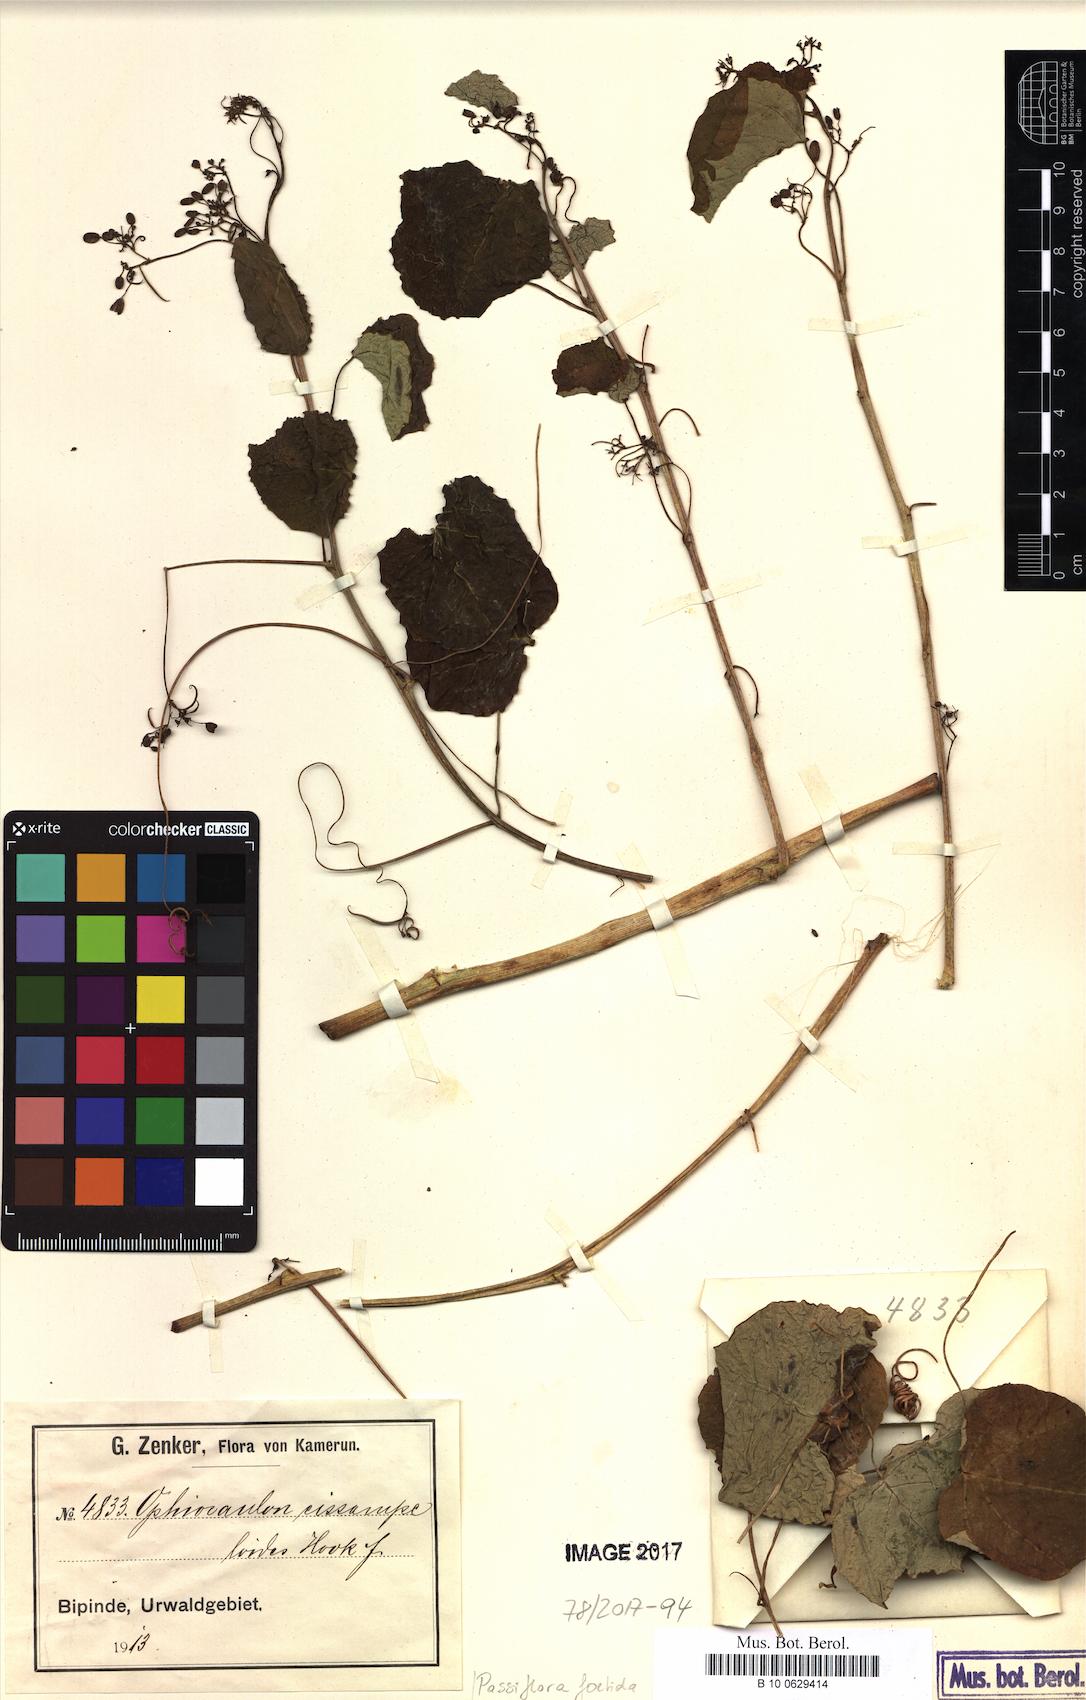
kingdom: Plantae
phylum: Tracheophyta
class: Magnoliopsida
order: Malpighiales
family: Passifloraceae
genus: Passiflora
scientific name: Passiflora foetida
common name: Fetid passionflower
